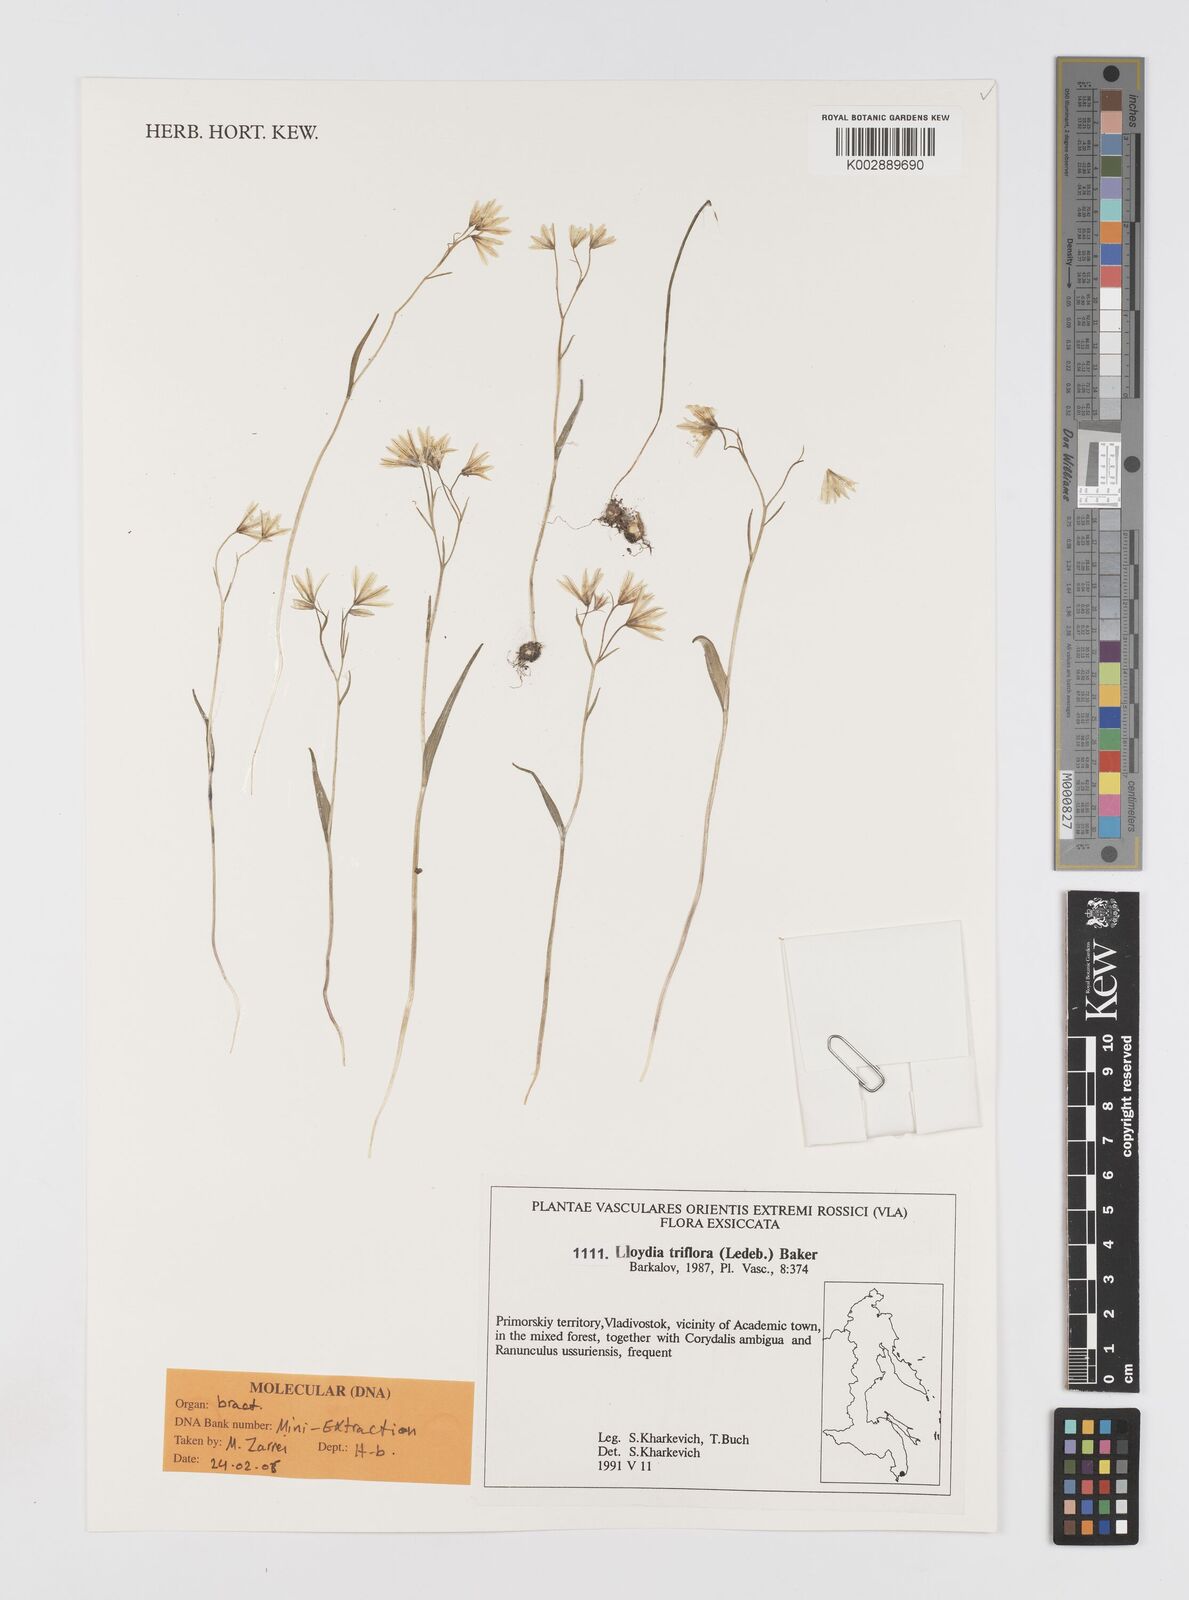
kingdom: Plantae
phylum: Tracheophyta
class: Liliopsida
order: Liliales
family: Liliaceae
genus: Gagea
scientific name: Gagea triflora
